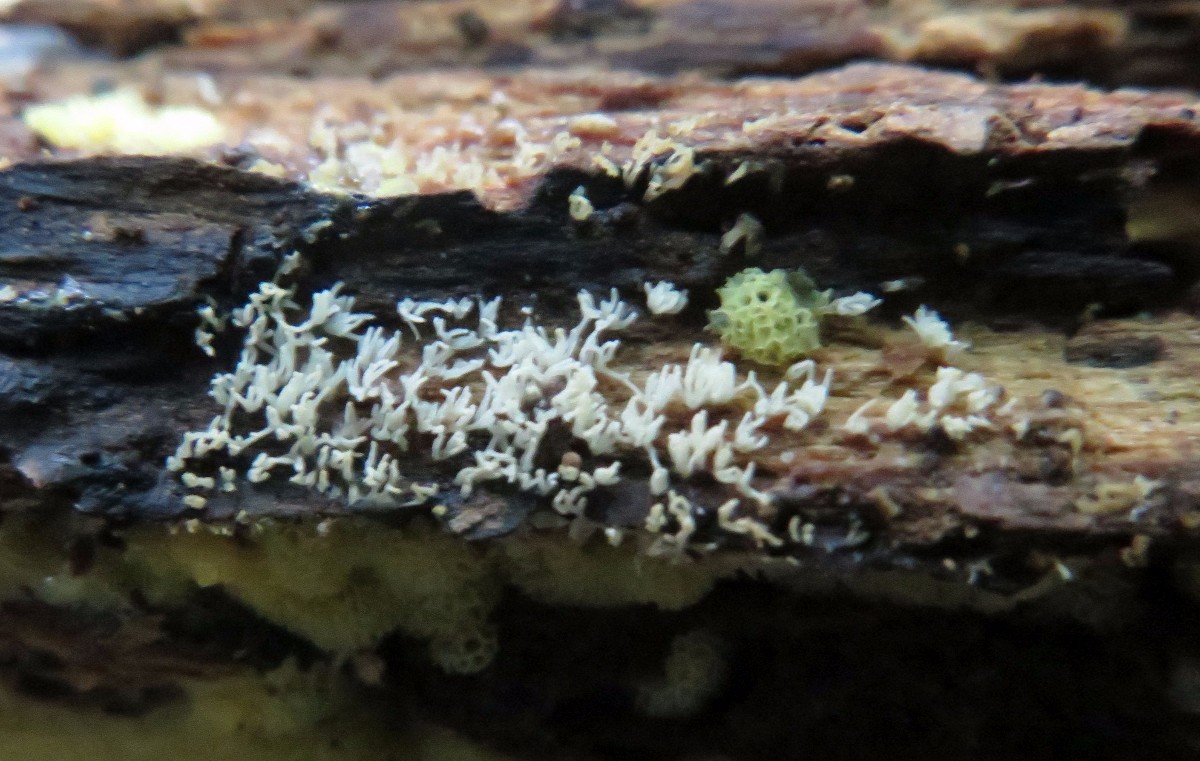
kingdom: Protozoa
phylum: Mycetozoa
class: Protosteliomycetes
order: Ceratiomyxales
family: Ceratiomyxaceae
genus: Ceratiomyxa
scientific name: Ceratiomyxa fruticulosa
